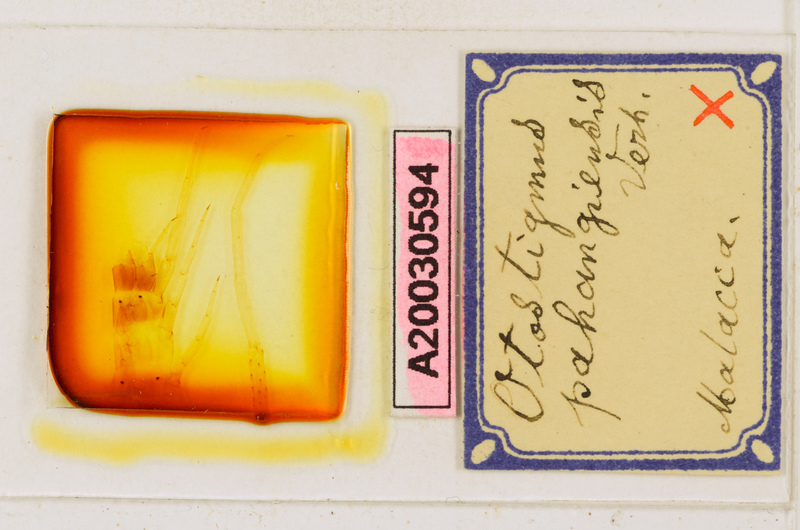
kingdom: Animalia
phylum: Arthropoda
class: Chilopoda
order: Scolopendromorpha
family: Scolopendridae
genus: Otostigmus
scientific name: Otostigmus pahangiensis
